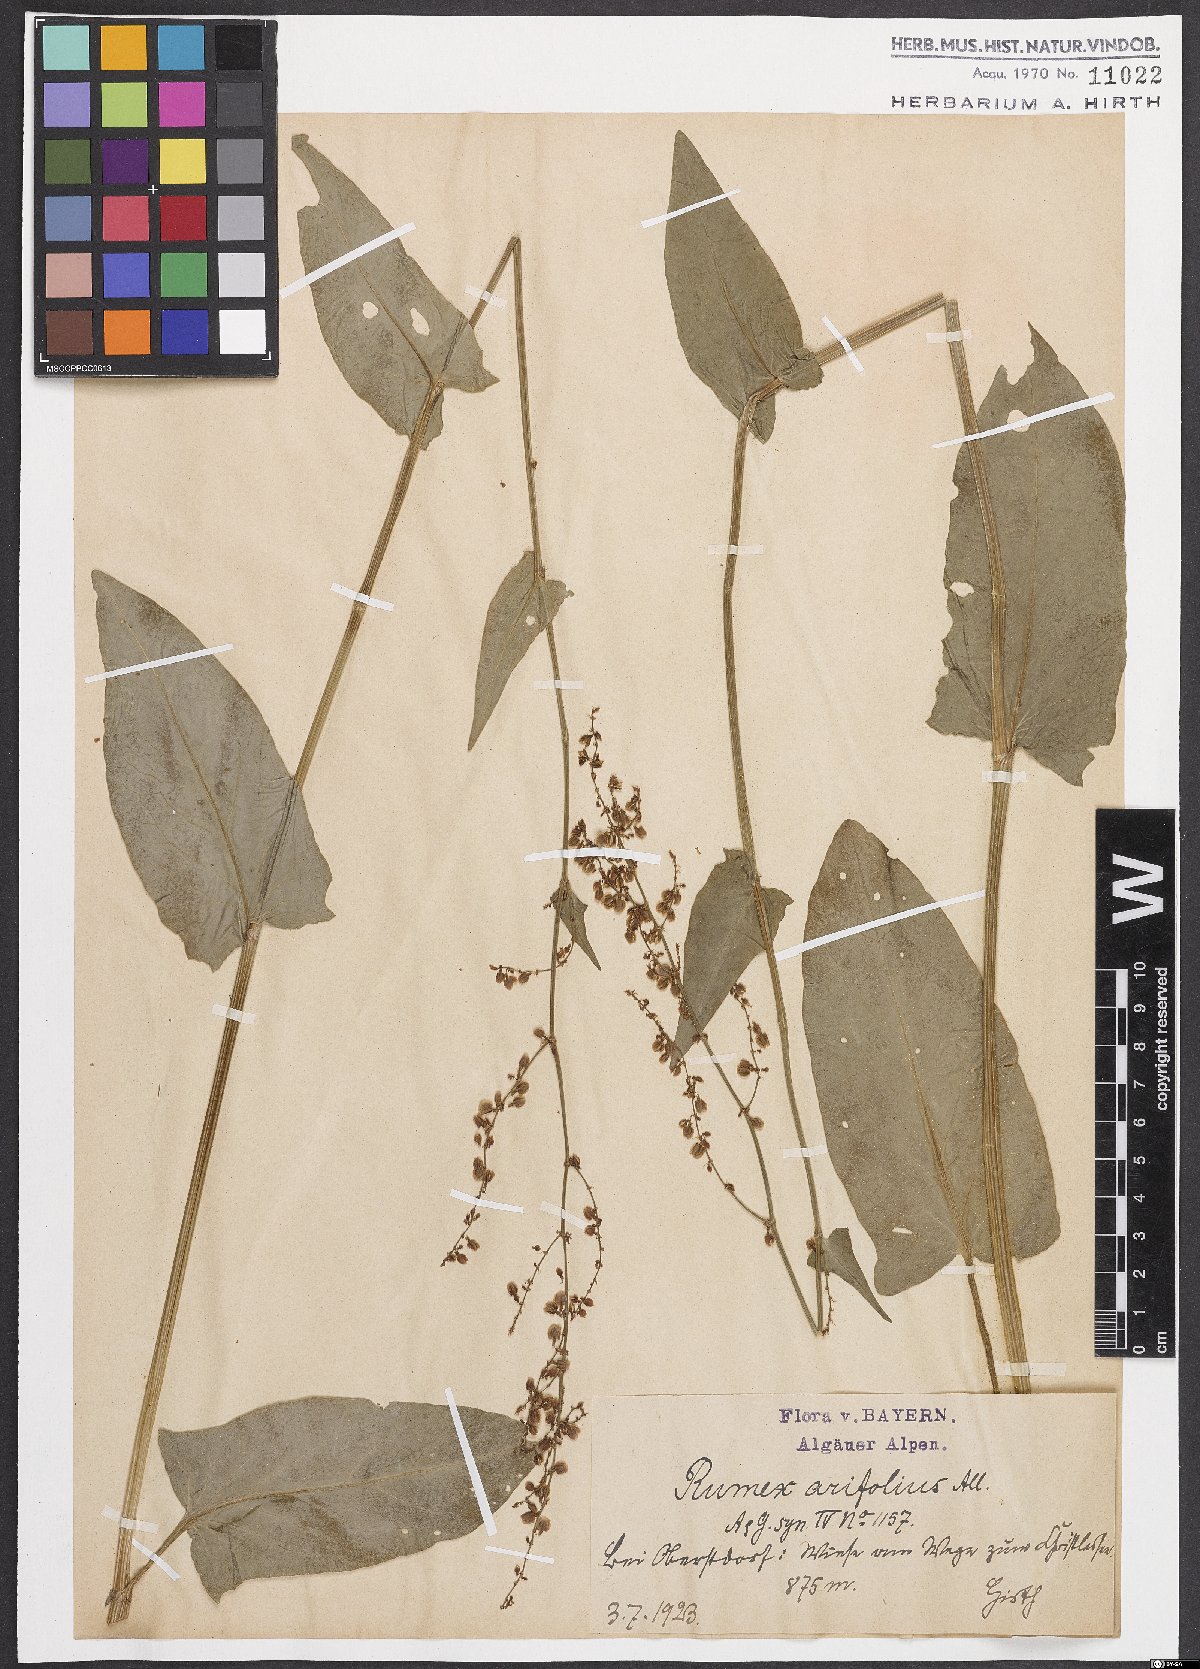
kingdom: Plantae
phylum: Tracheophyta
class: Magnoliopsida
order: Caryophyllales
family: Polygonaceae
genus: Rumex
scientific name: Rumex arifolius
